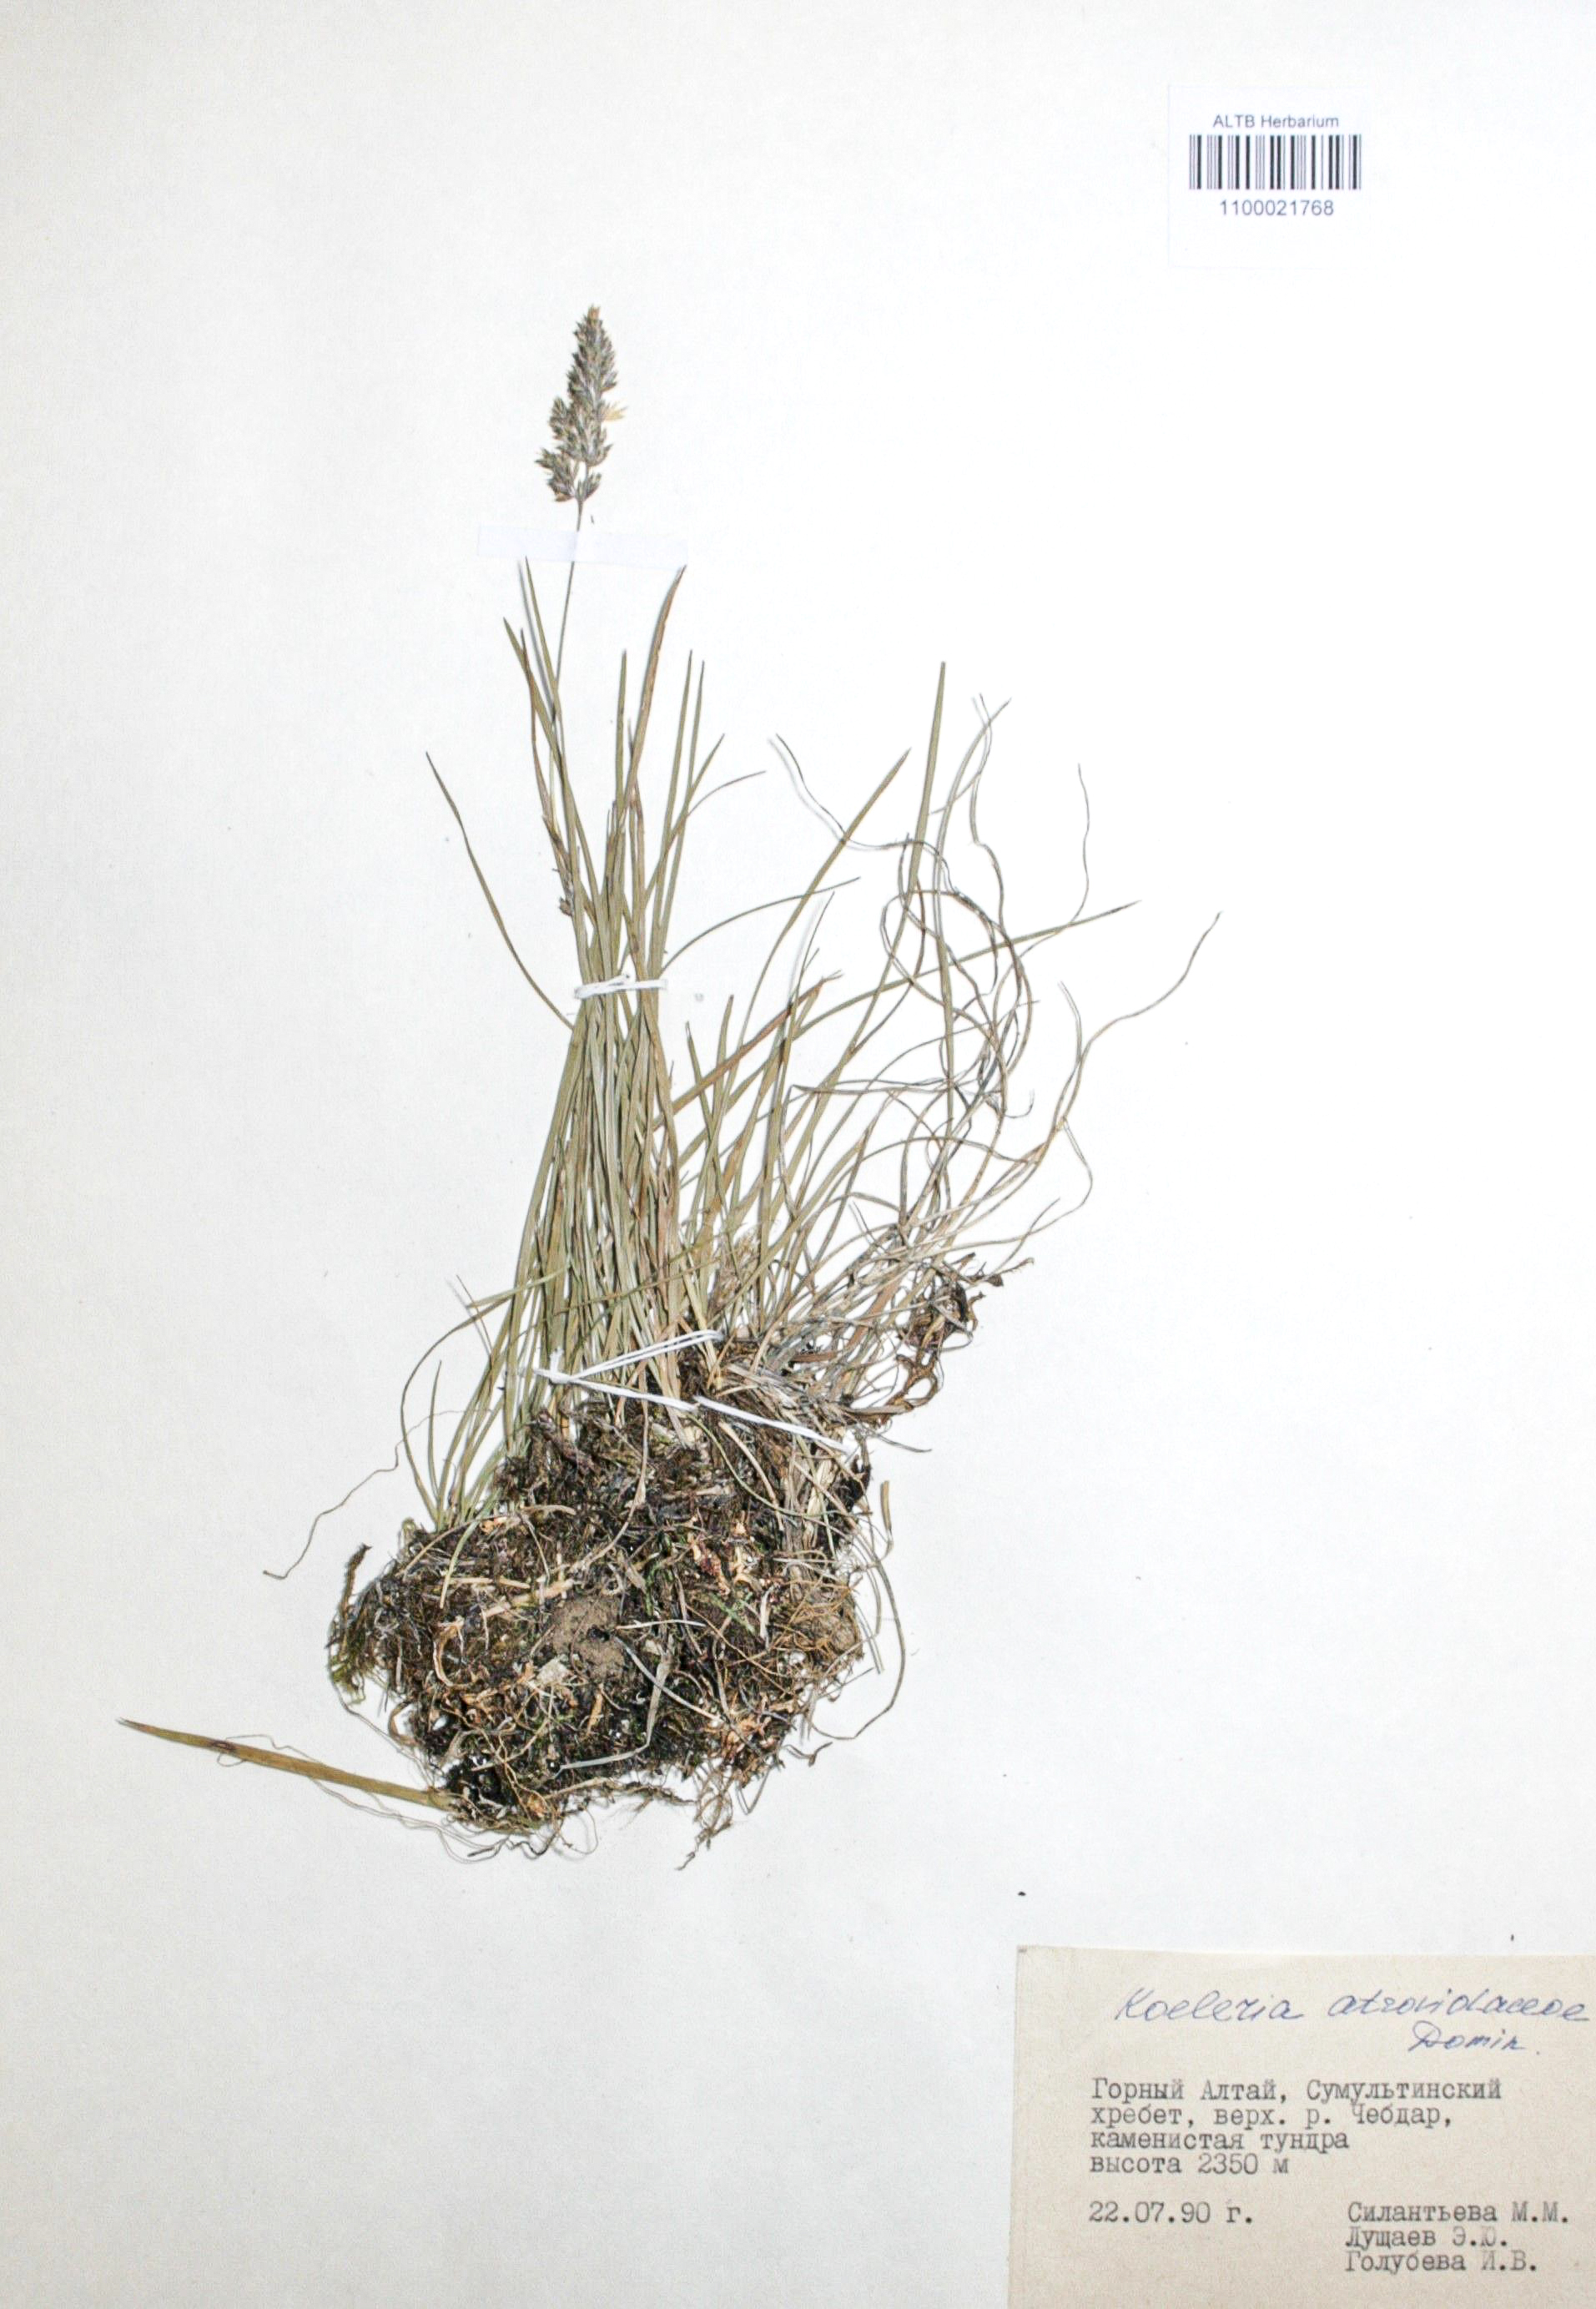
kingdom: Plantae
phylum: Tracheophyta
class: Liliopsida
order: Poales
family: Poaceae
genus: Koeleria
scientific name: Koeleria asiatica
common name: Eurasian junegrass
